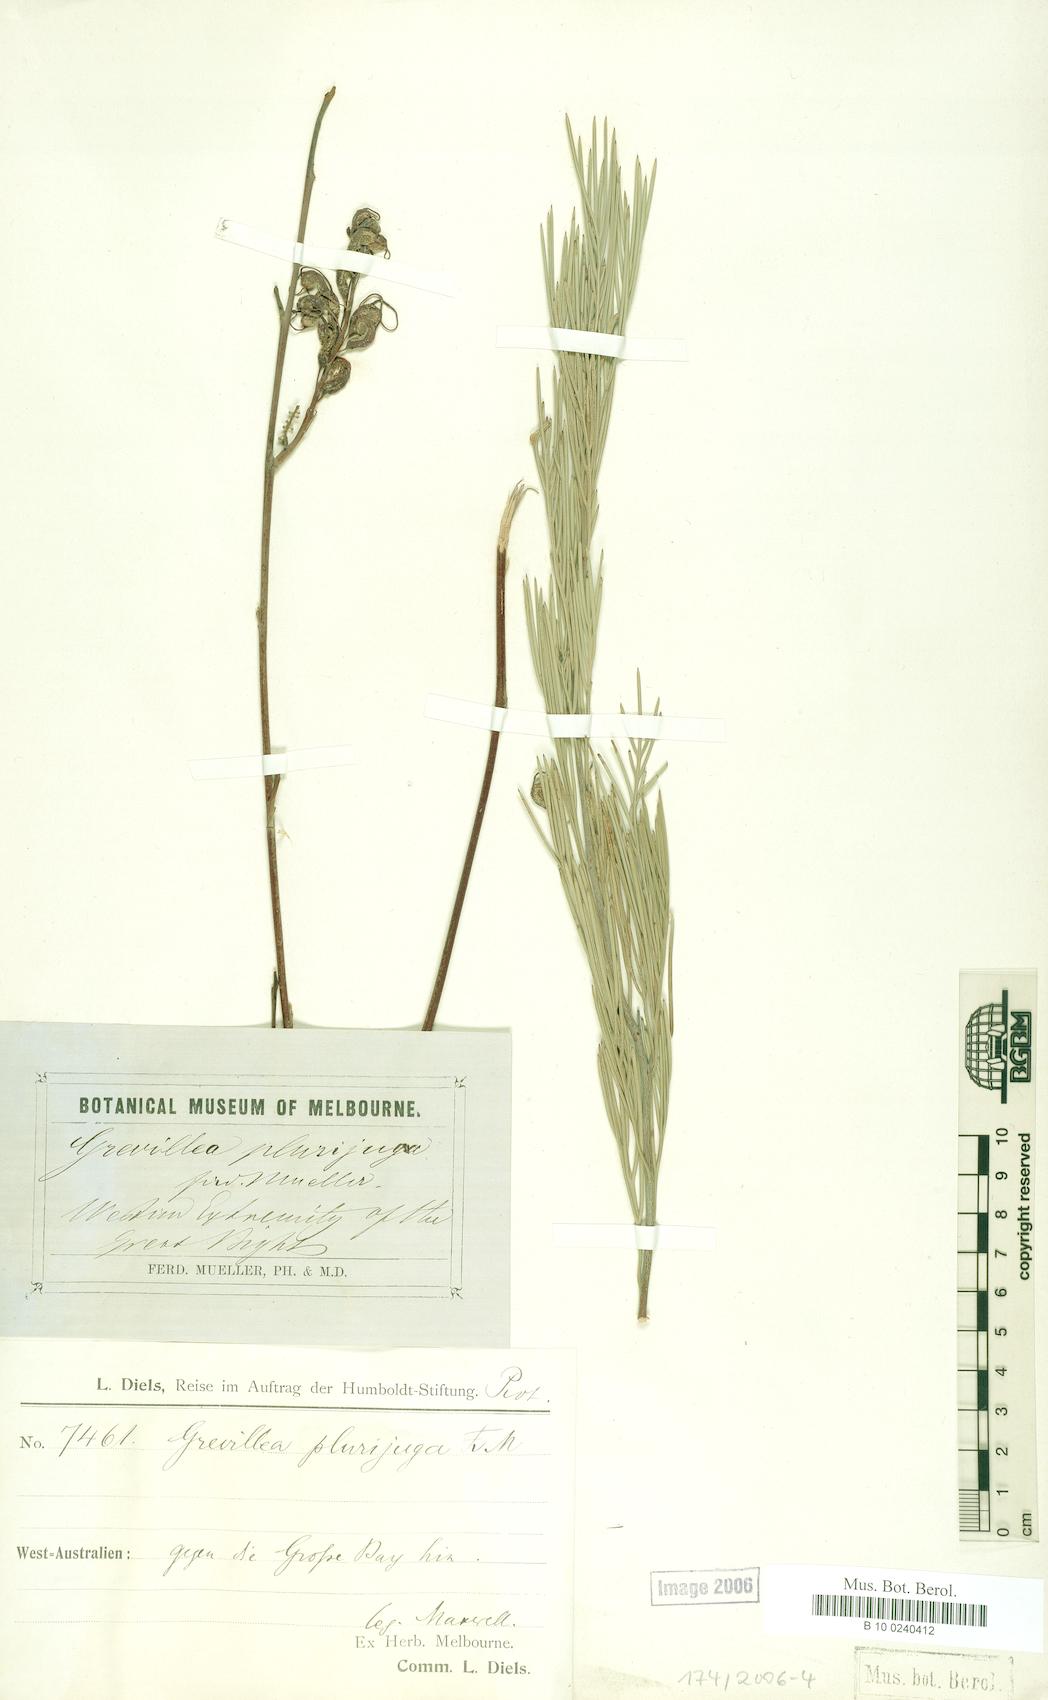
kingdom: Plantae
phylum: Tracheophyta
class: Magnoliopsida
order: Proteales
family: Proteaceae
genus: Grevillea
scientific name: Grevillea plurijuga
